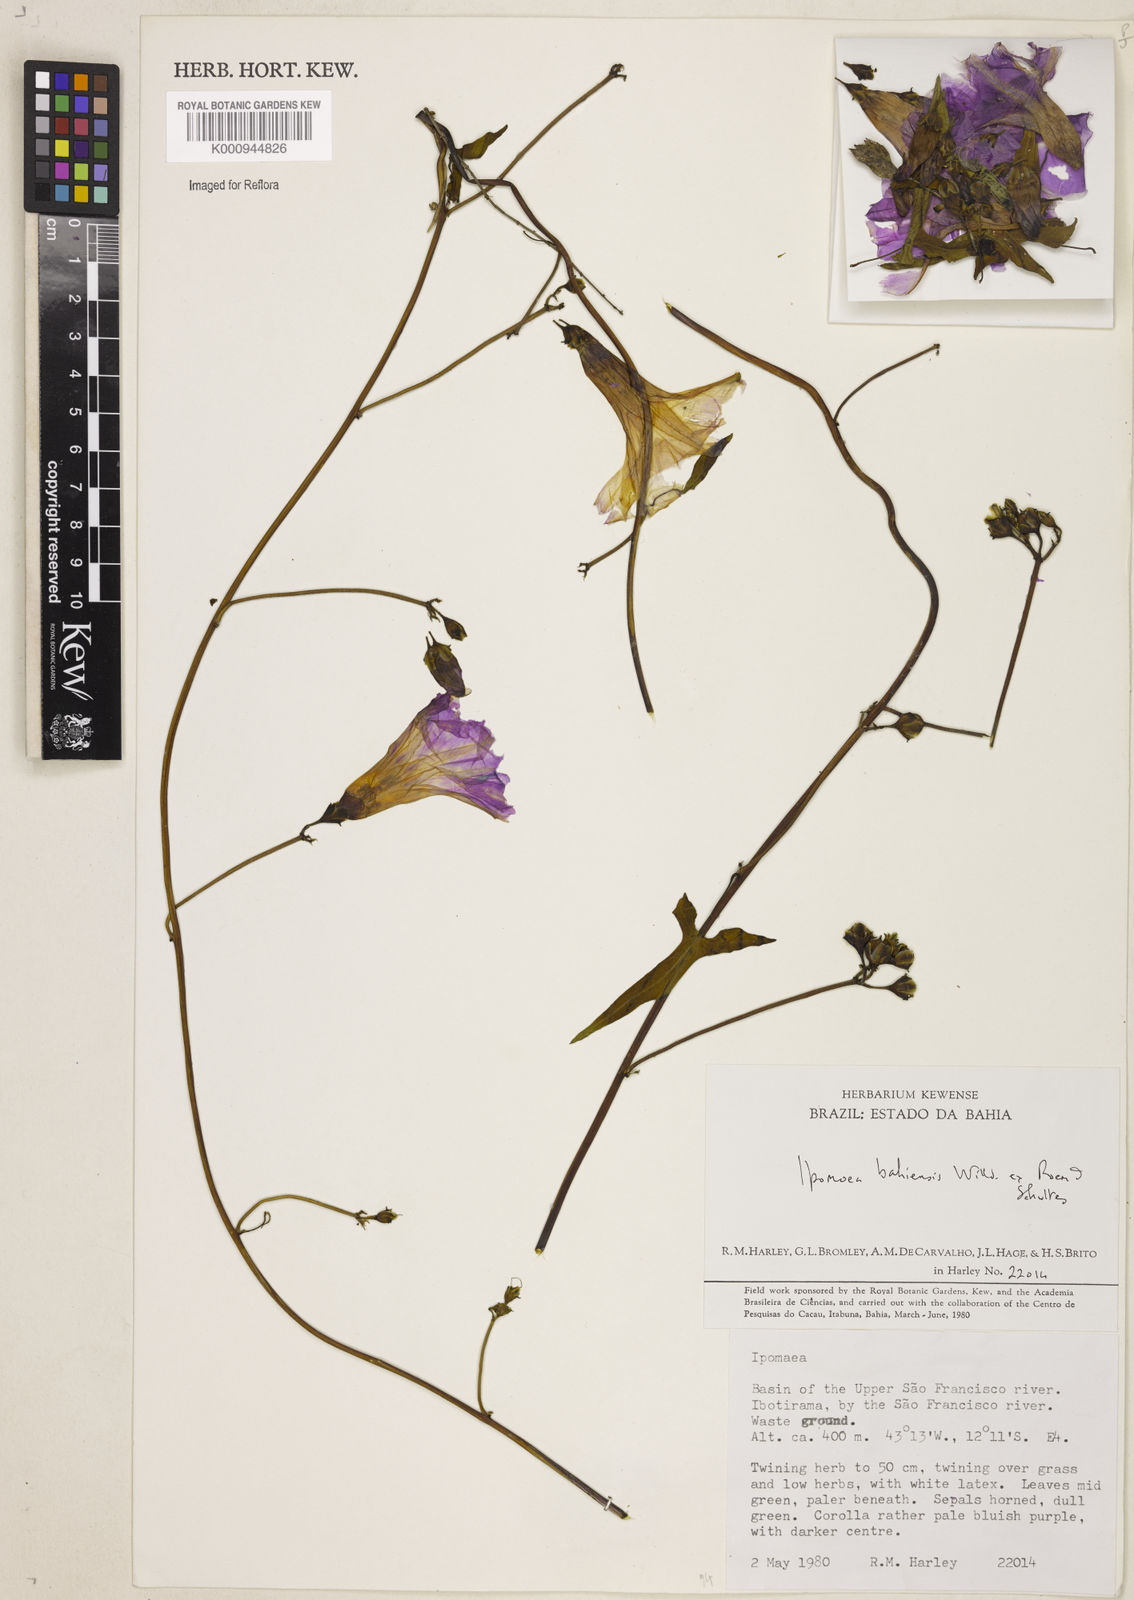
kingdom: Plantae
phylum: Tracheophyta
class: Magnoliopsida
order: Solanales
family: Convolvulaceae
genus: Ipomoea
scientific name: Ipomoea
